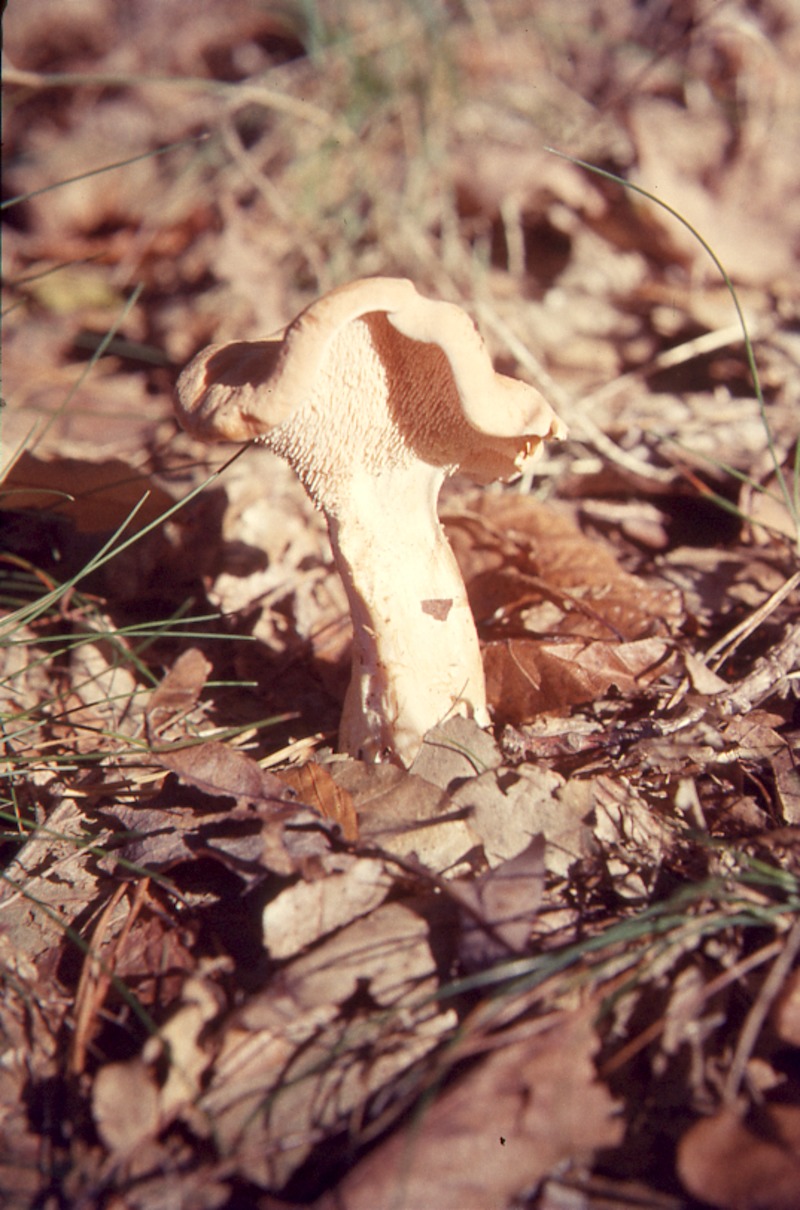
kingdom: Fungi
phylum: Basidiomycota
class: Agaricomycetes
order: Cantharellales
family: Hydnaceae
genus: Hydnum
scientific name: Hydnum repandum
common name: Wood hedgehog
